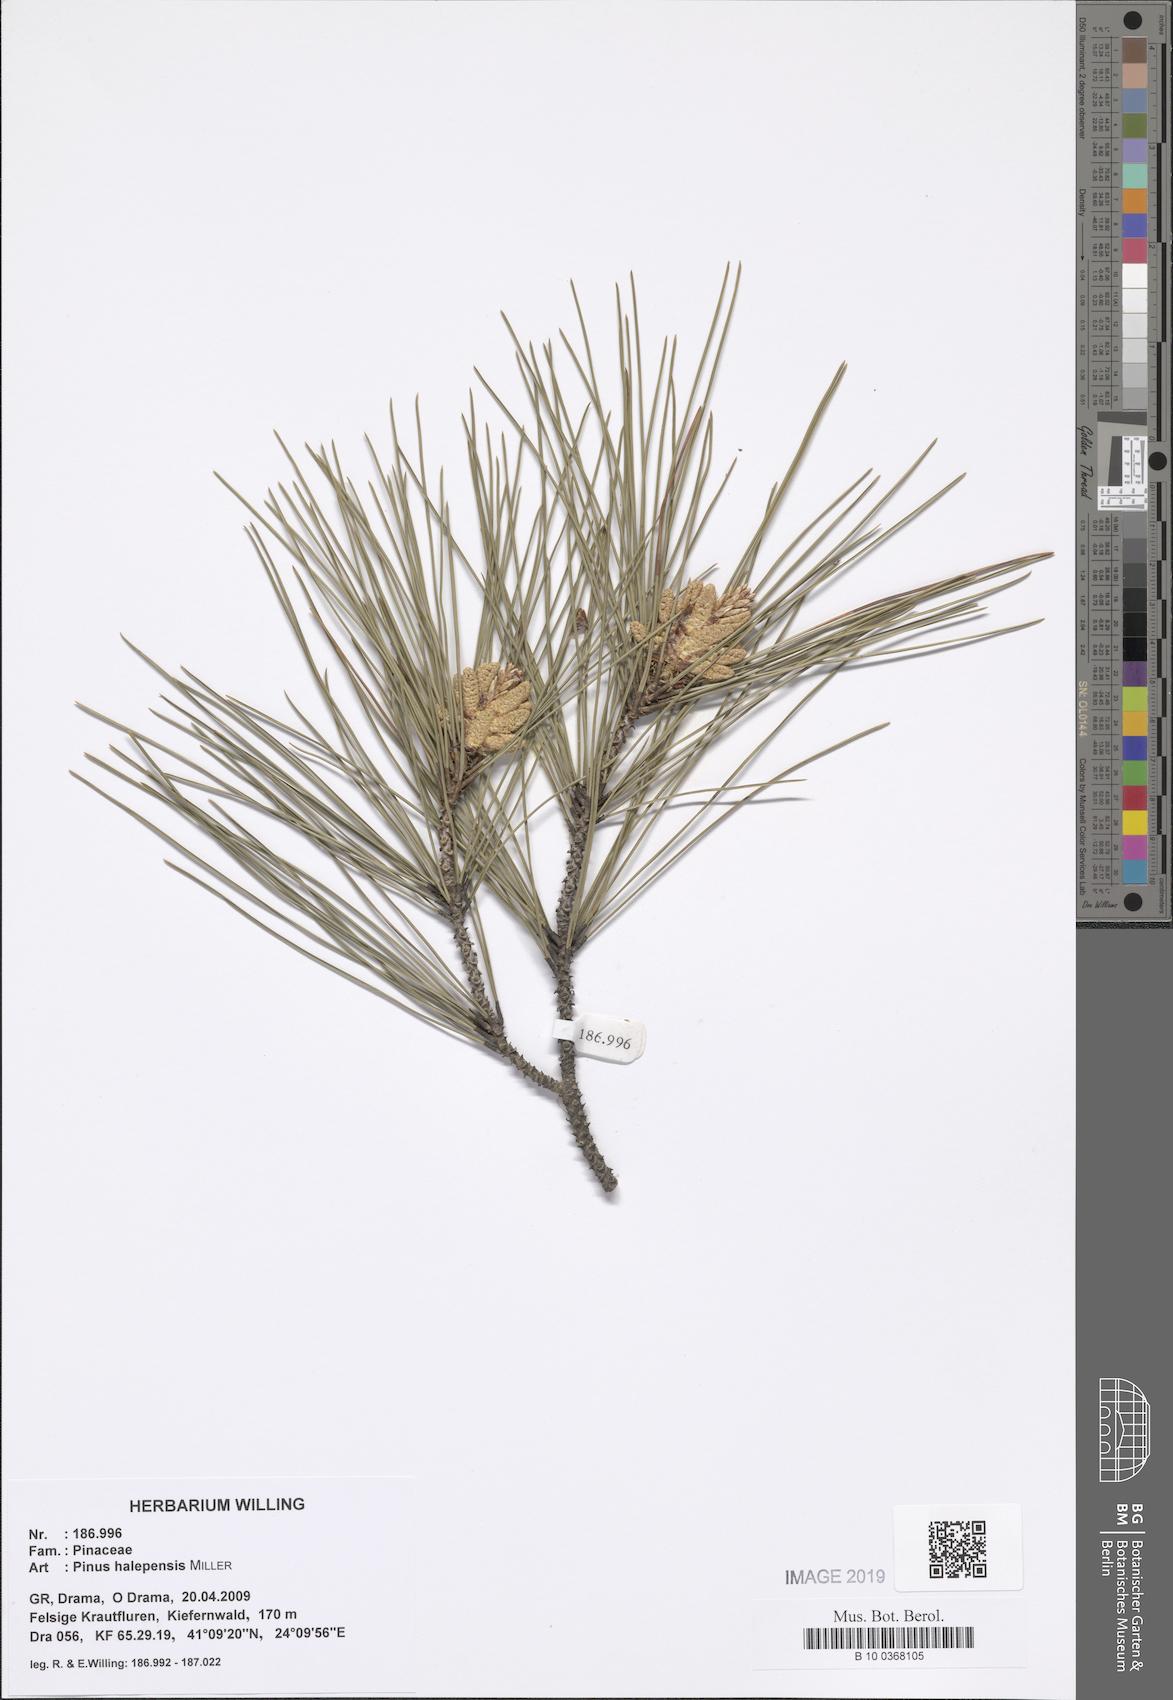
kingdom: Plantae
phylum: Tracheophyta
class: Pinopsida
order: Pinales
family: Pinaceae
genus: Pinus
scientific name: Pinus halepensis
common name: Aleppo pine
